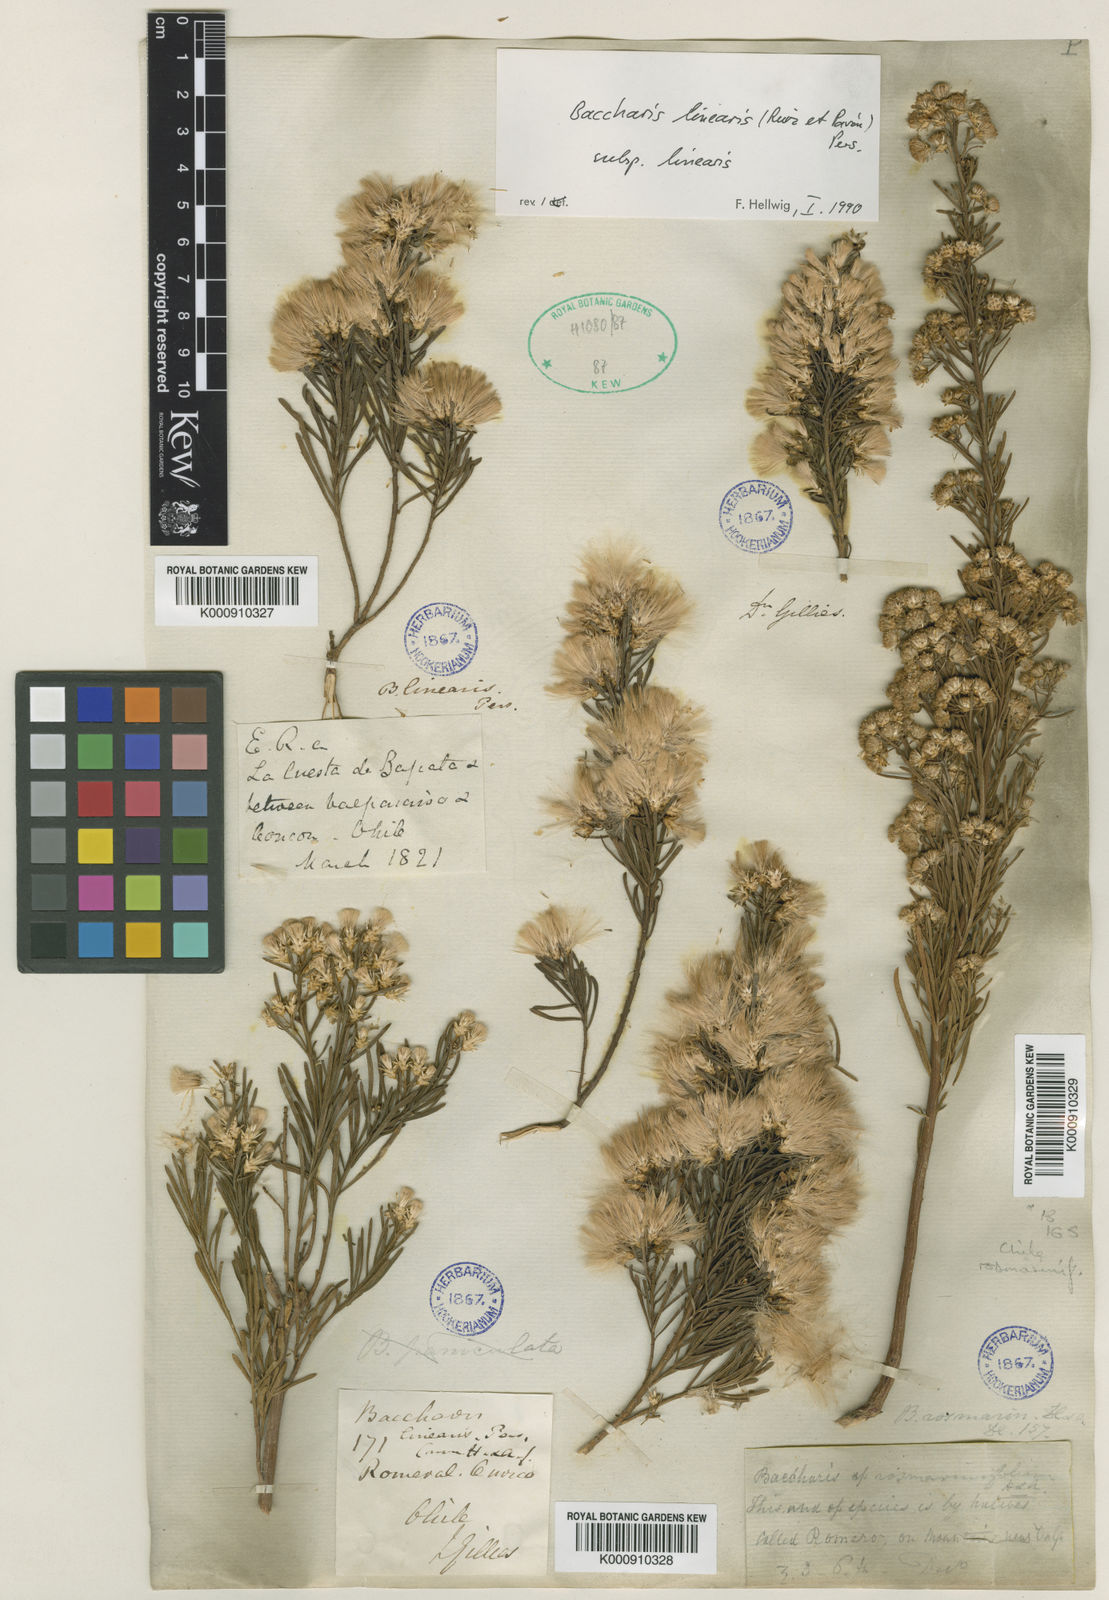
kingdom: Plantae
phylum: Tracheophyta
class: Magnoliopsida
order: Asterales
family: Asteraceae
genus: Baccharis
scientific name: Baccharis linearis
